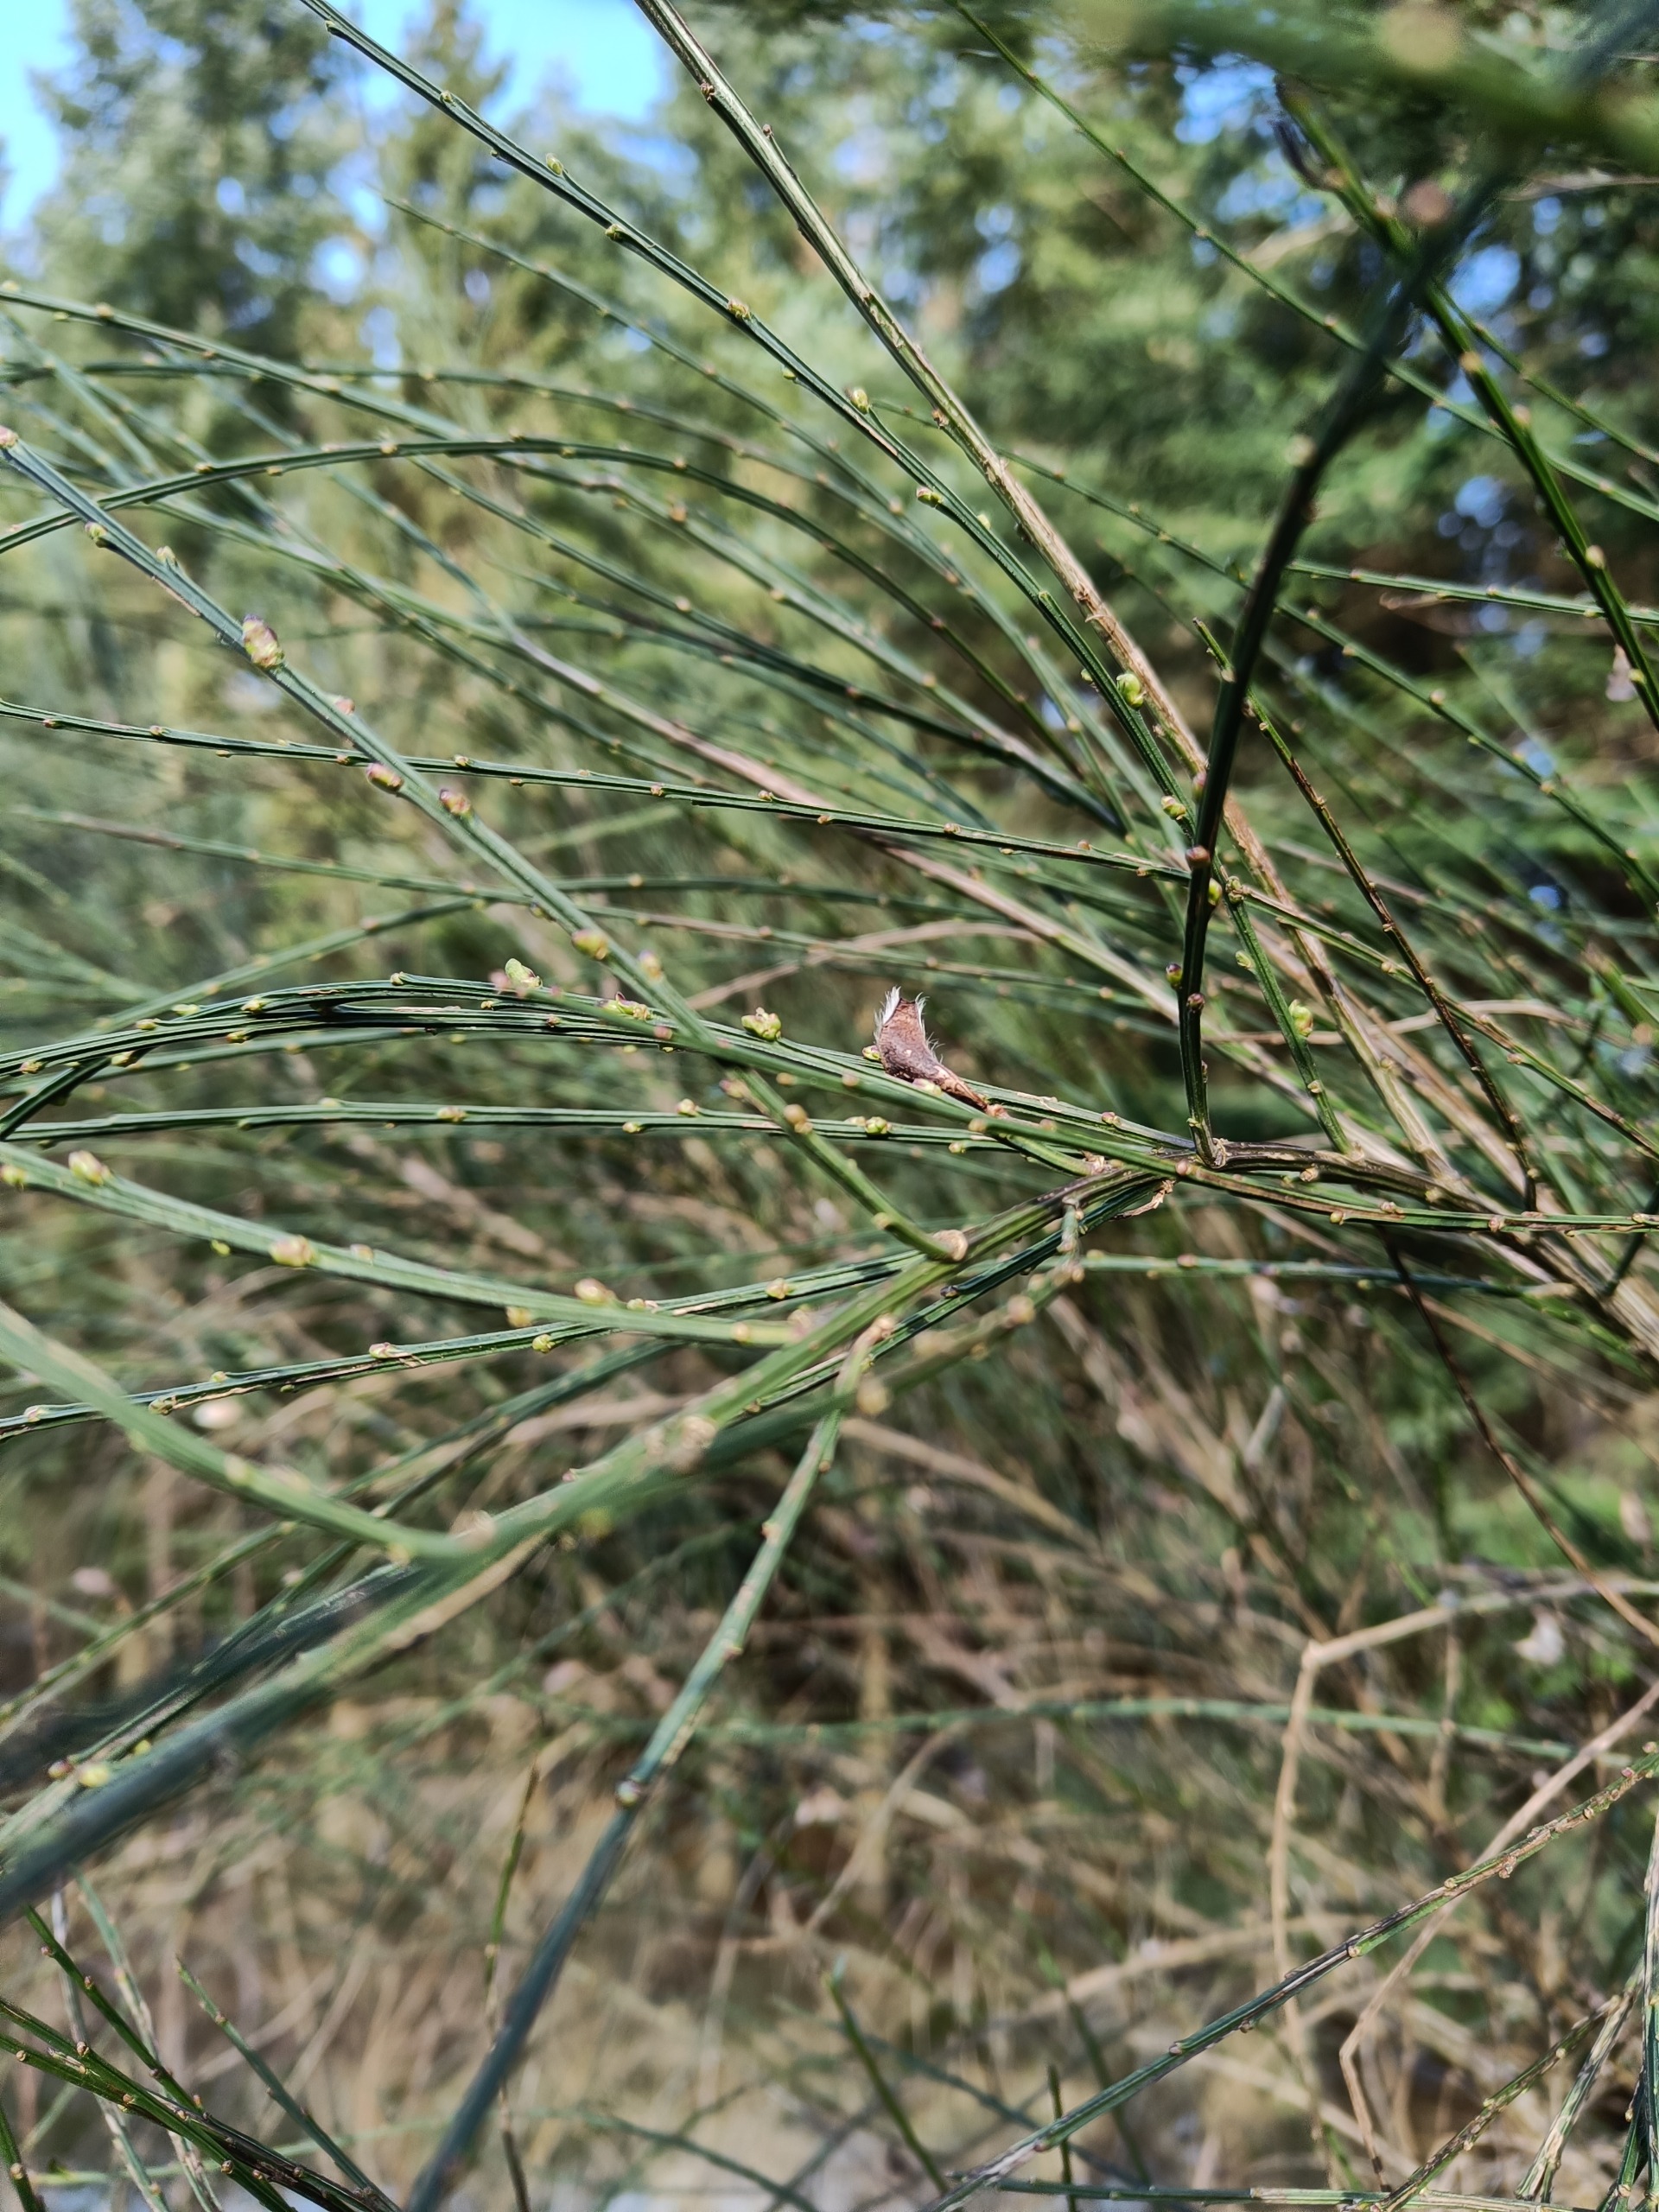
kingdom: Plantae
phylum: Tracheophyta
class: Magnoliopsida
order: Fabales
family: Fabaceae
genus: Cytisus
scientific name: Cytisus scoparius
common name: Almindelig gyvel
